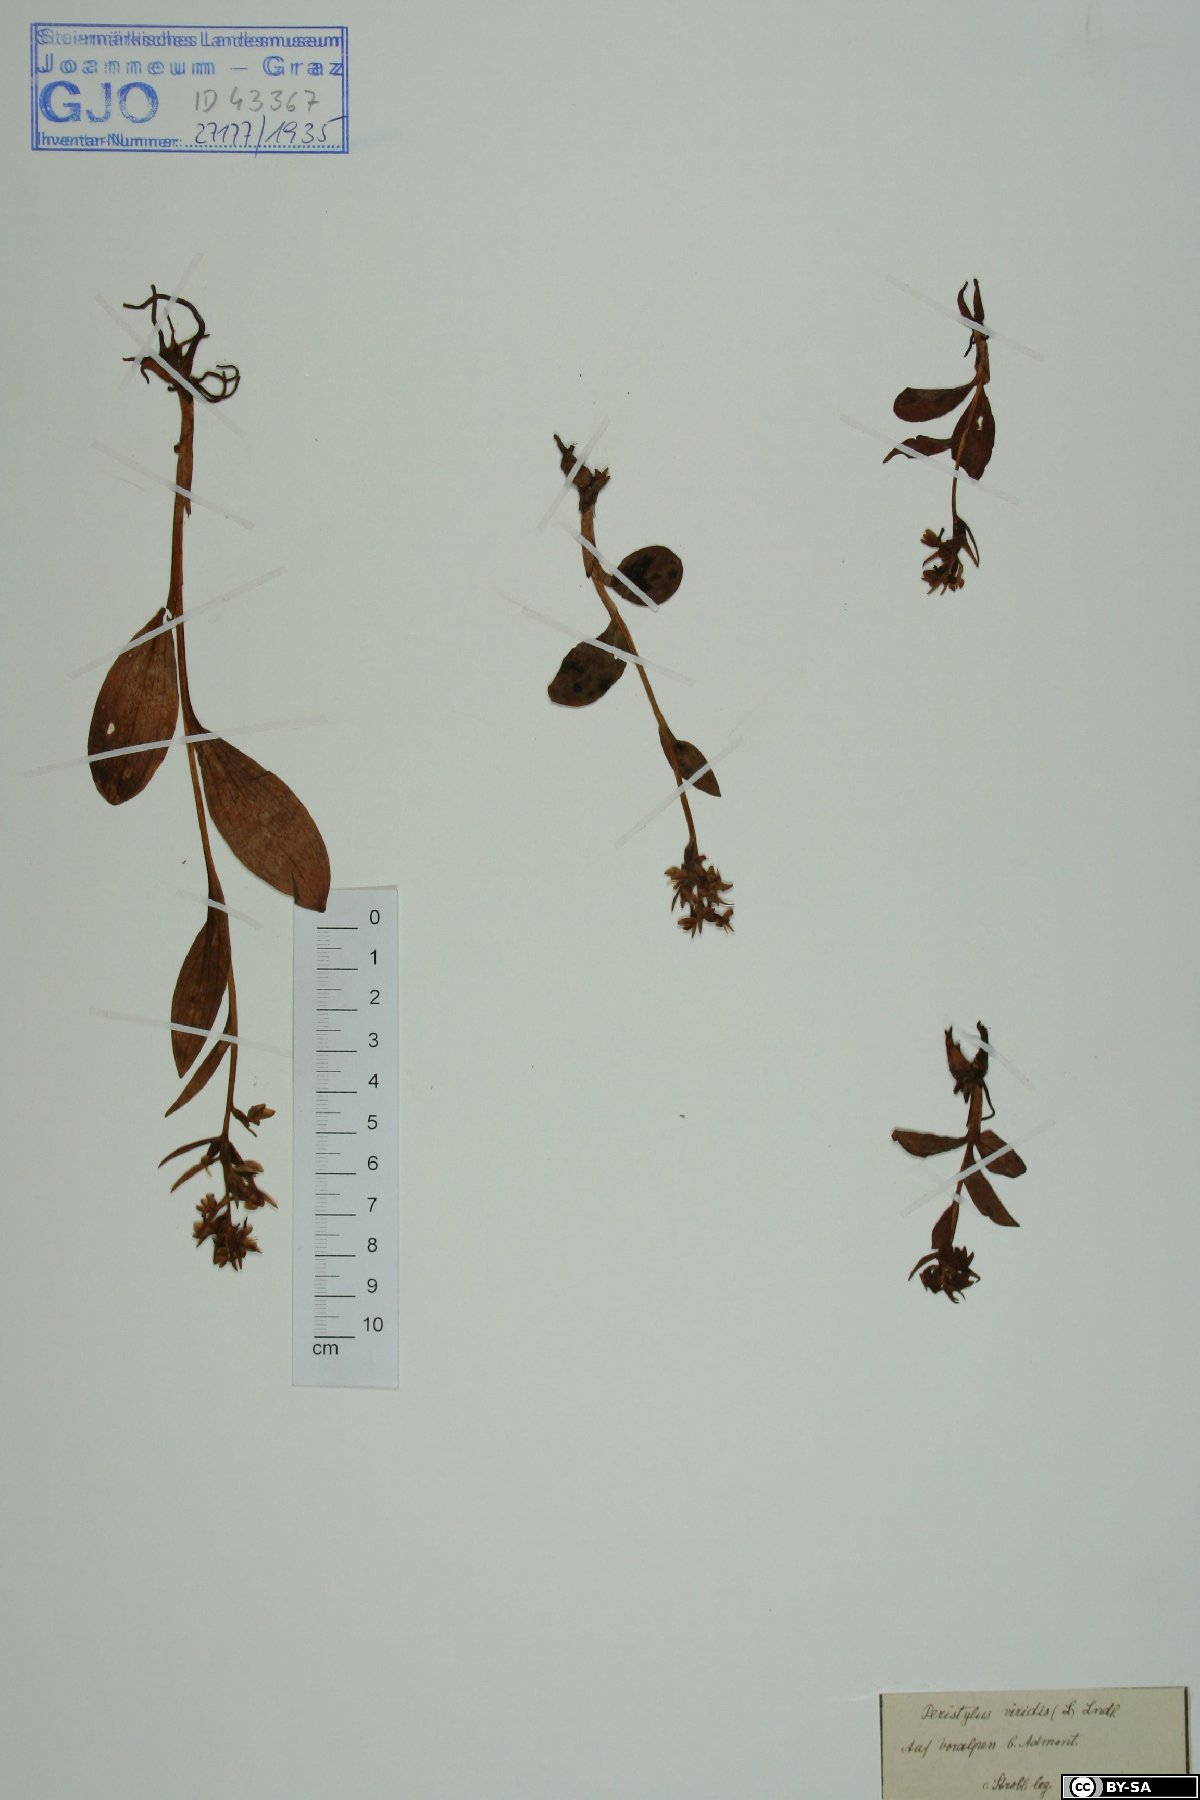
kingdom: Plantae
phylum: Tracheophyta
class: Liliopsida
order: Asparagales
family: Orchidaceae
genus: Dactylorhiza
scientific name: Dactylorhiza viridis
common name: Longbract frog orchid
